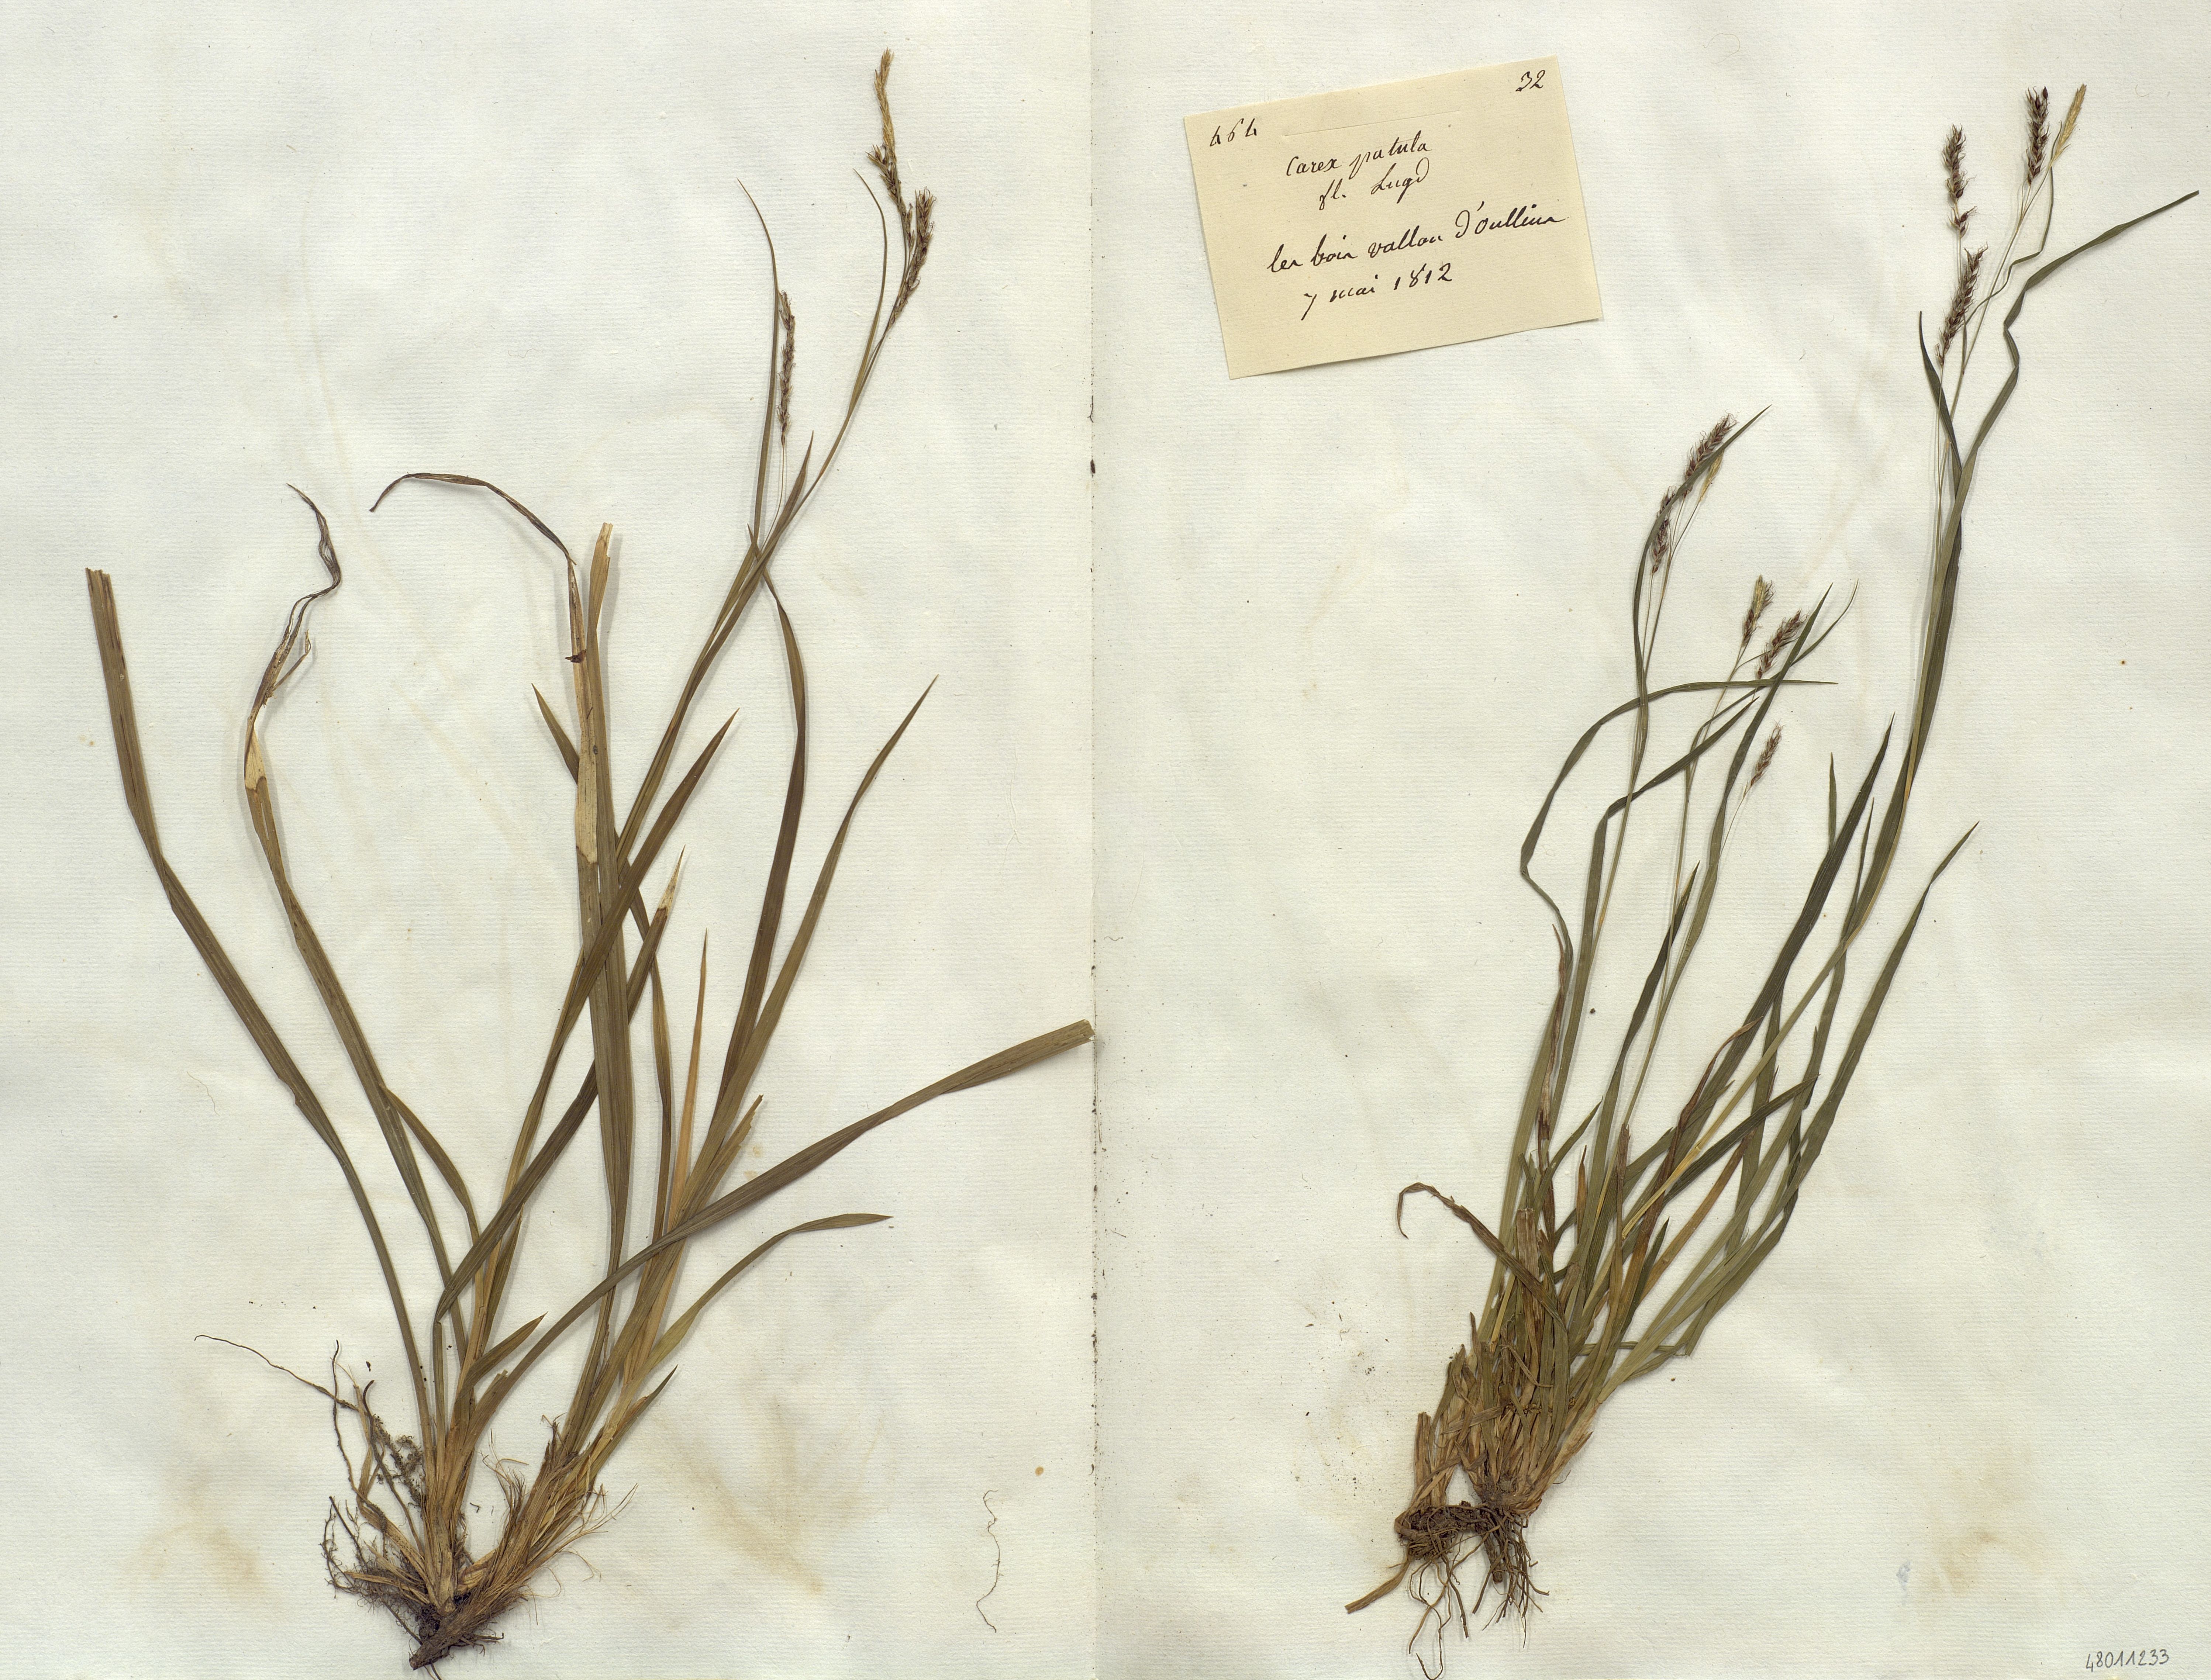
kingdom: Plantae
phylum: Tracheophyta
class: Liliopsida
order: Poales
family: Cyperaceae
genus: Carex
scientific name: Carex
